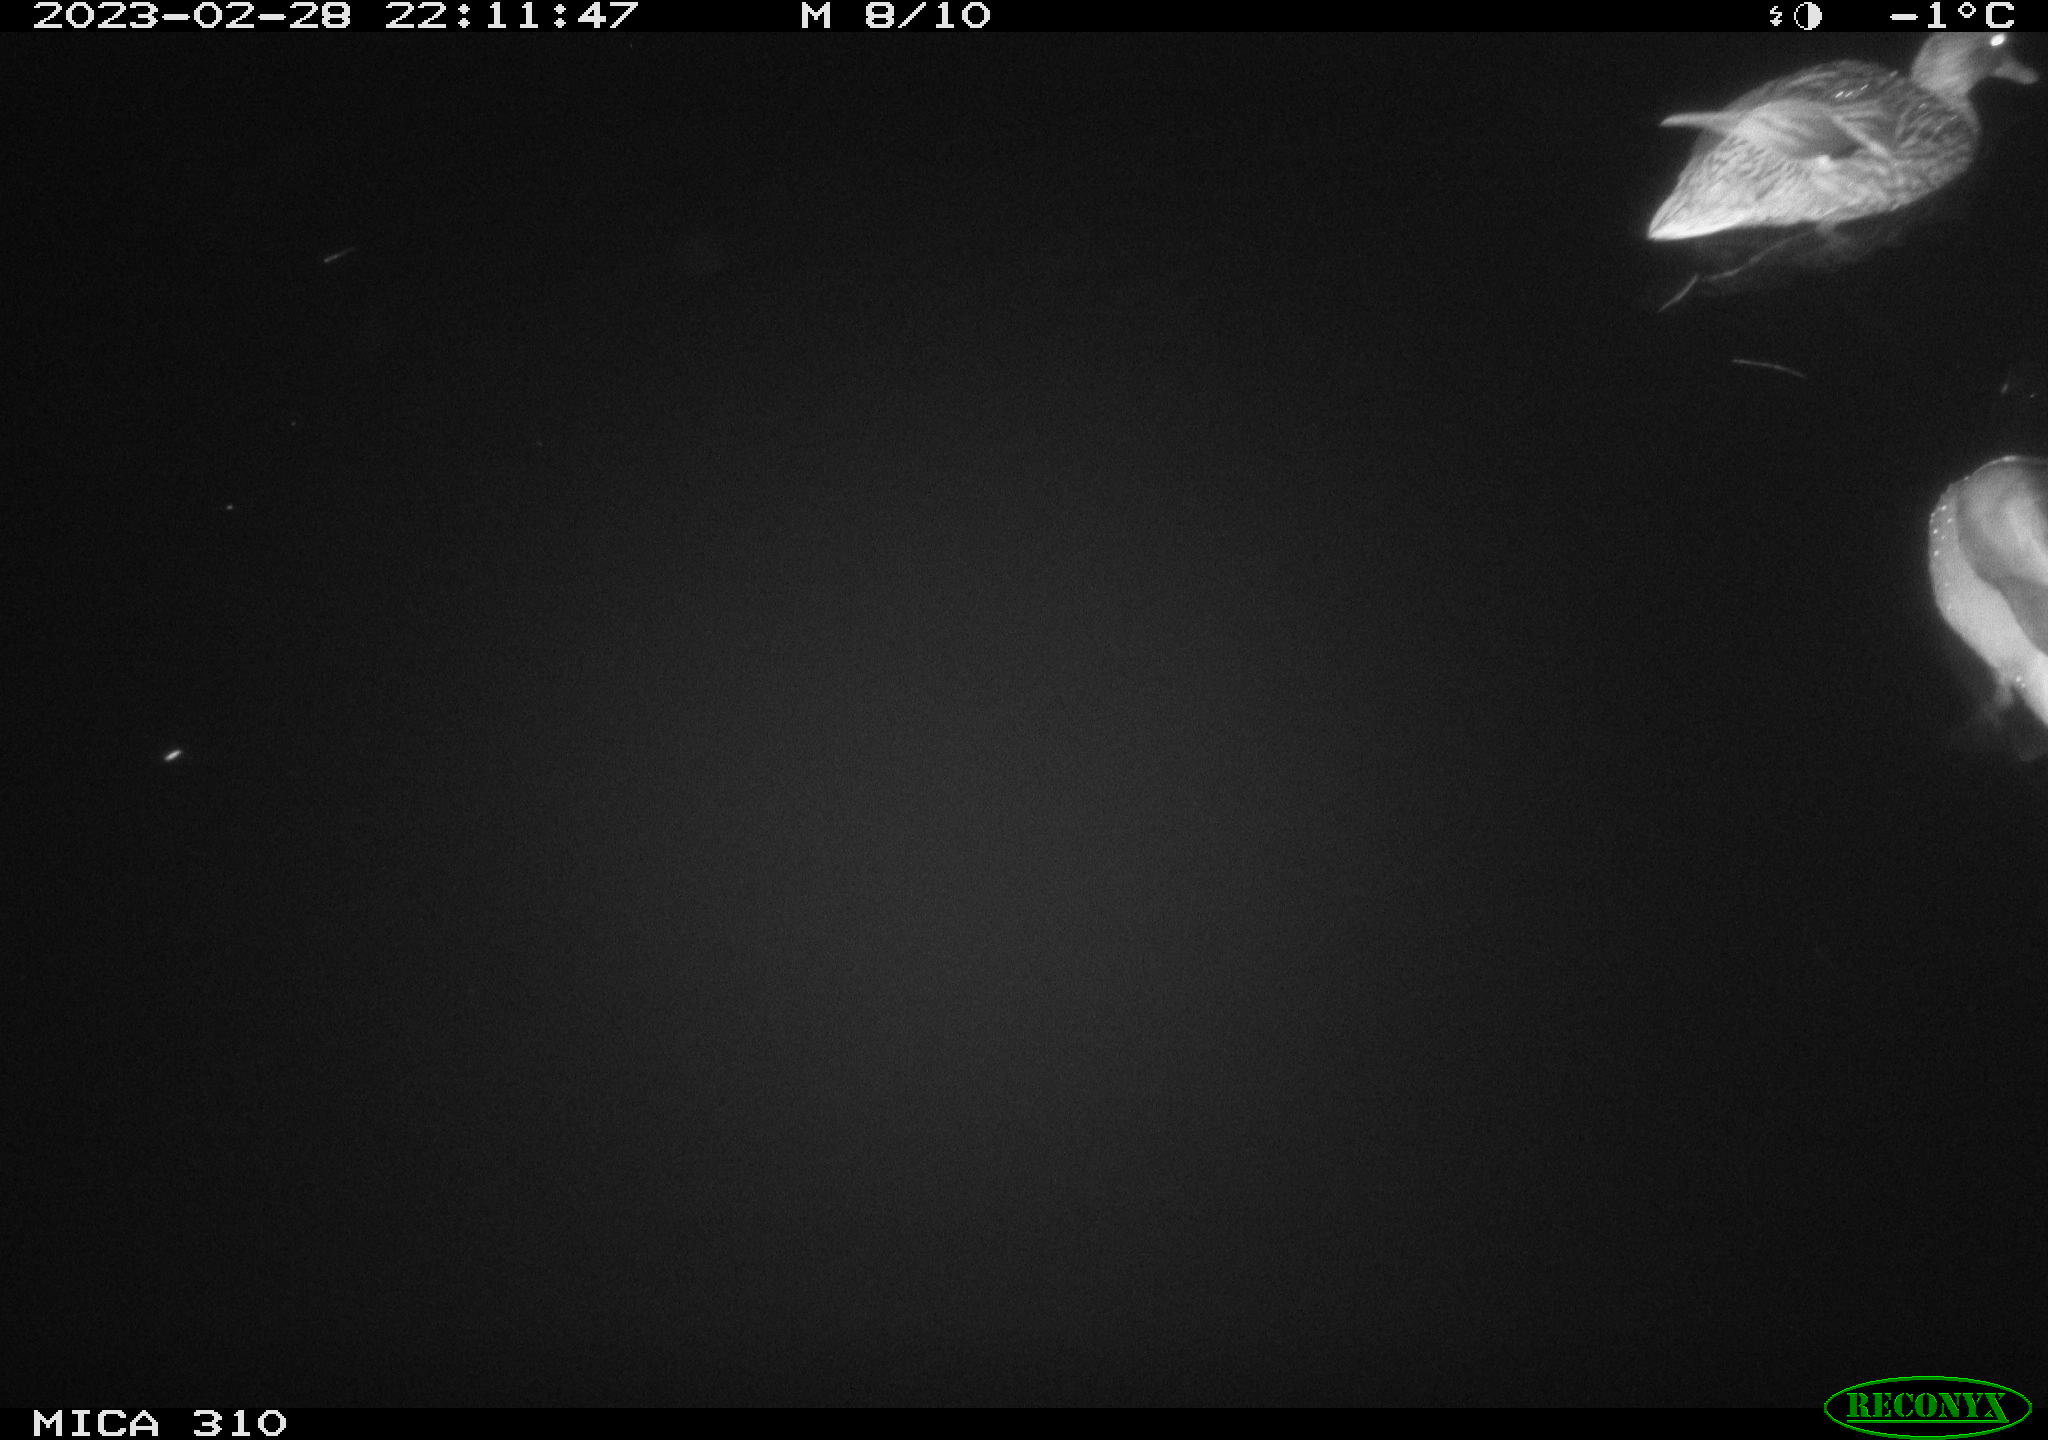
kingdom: Animalia
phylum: Chordata
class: Aves
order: Anseriformes
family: Anatidae
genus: Anas
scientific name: Anas
